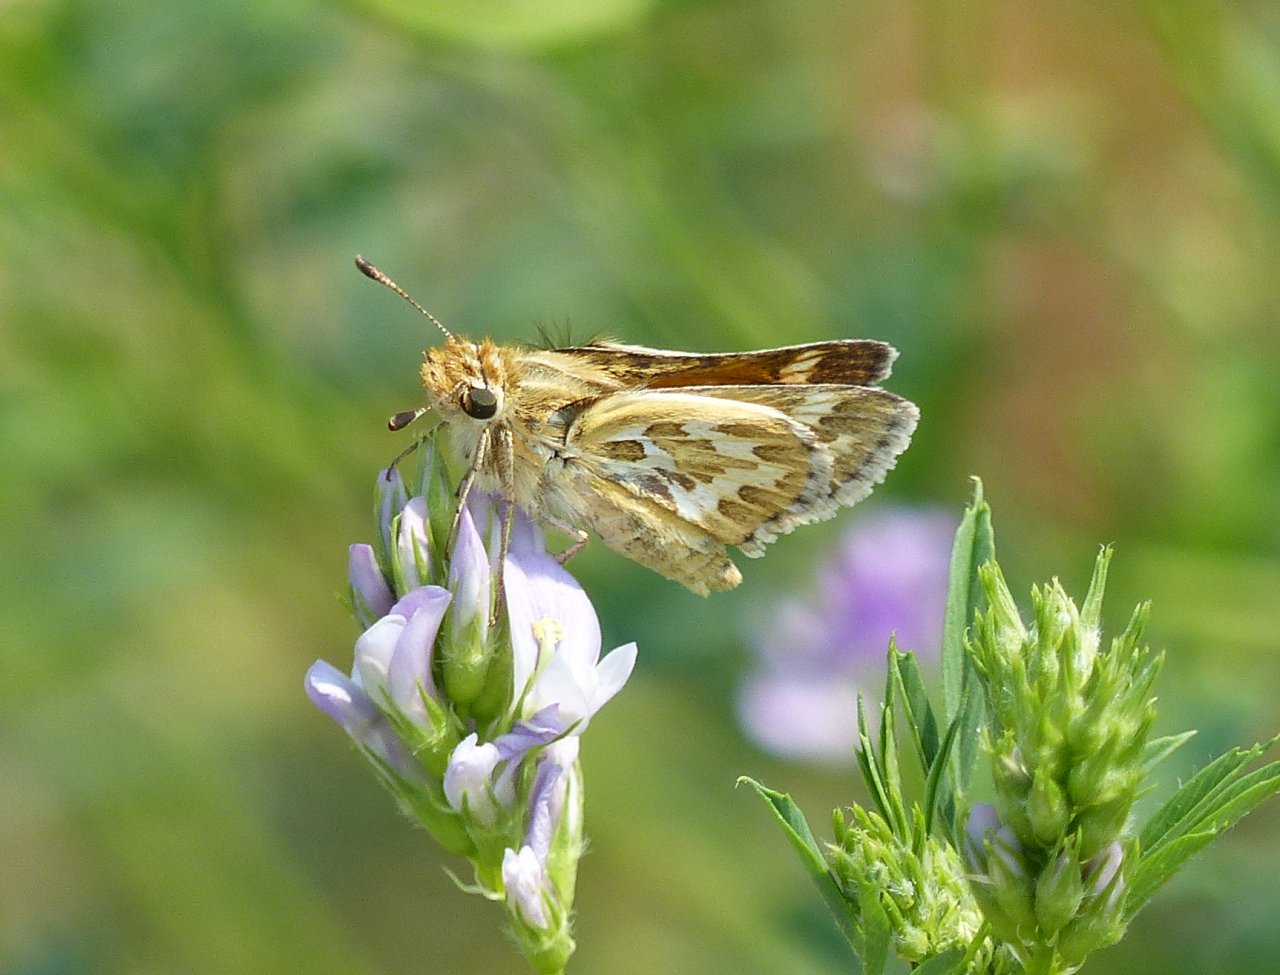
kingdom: Animalia
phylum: Arthropoda
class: Insecta
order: Lepidoptera
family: Hesperiidae
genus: Polites
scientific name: Polites sabuleti
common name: Sandhill Skipper
